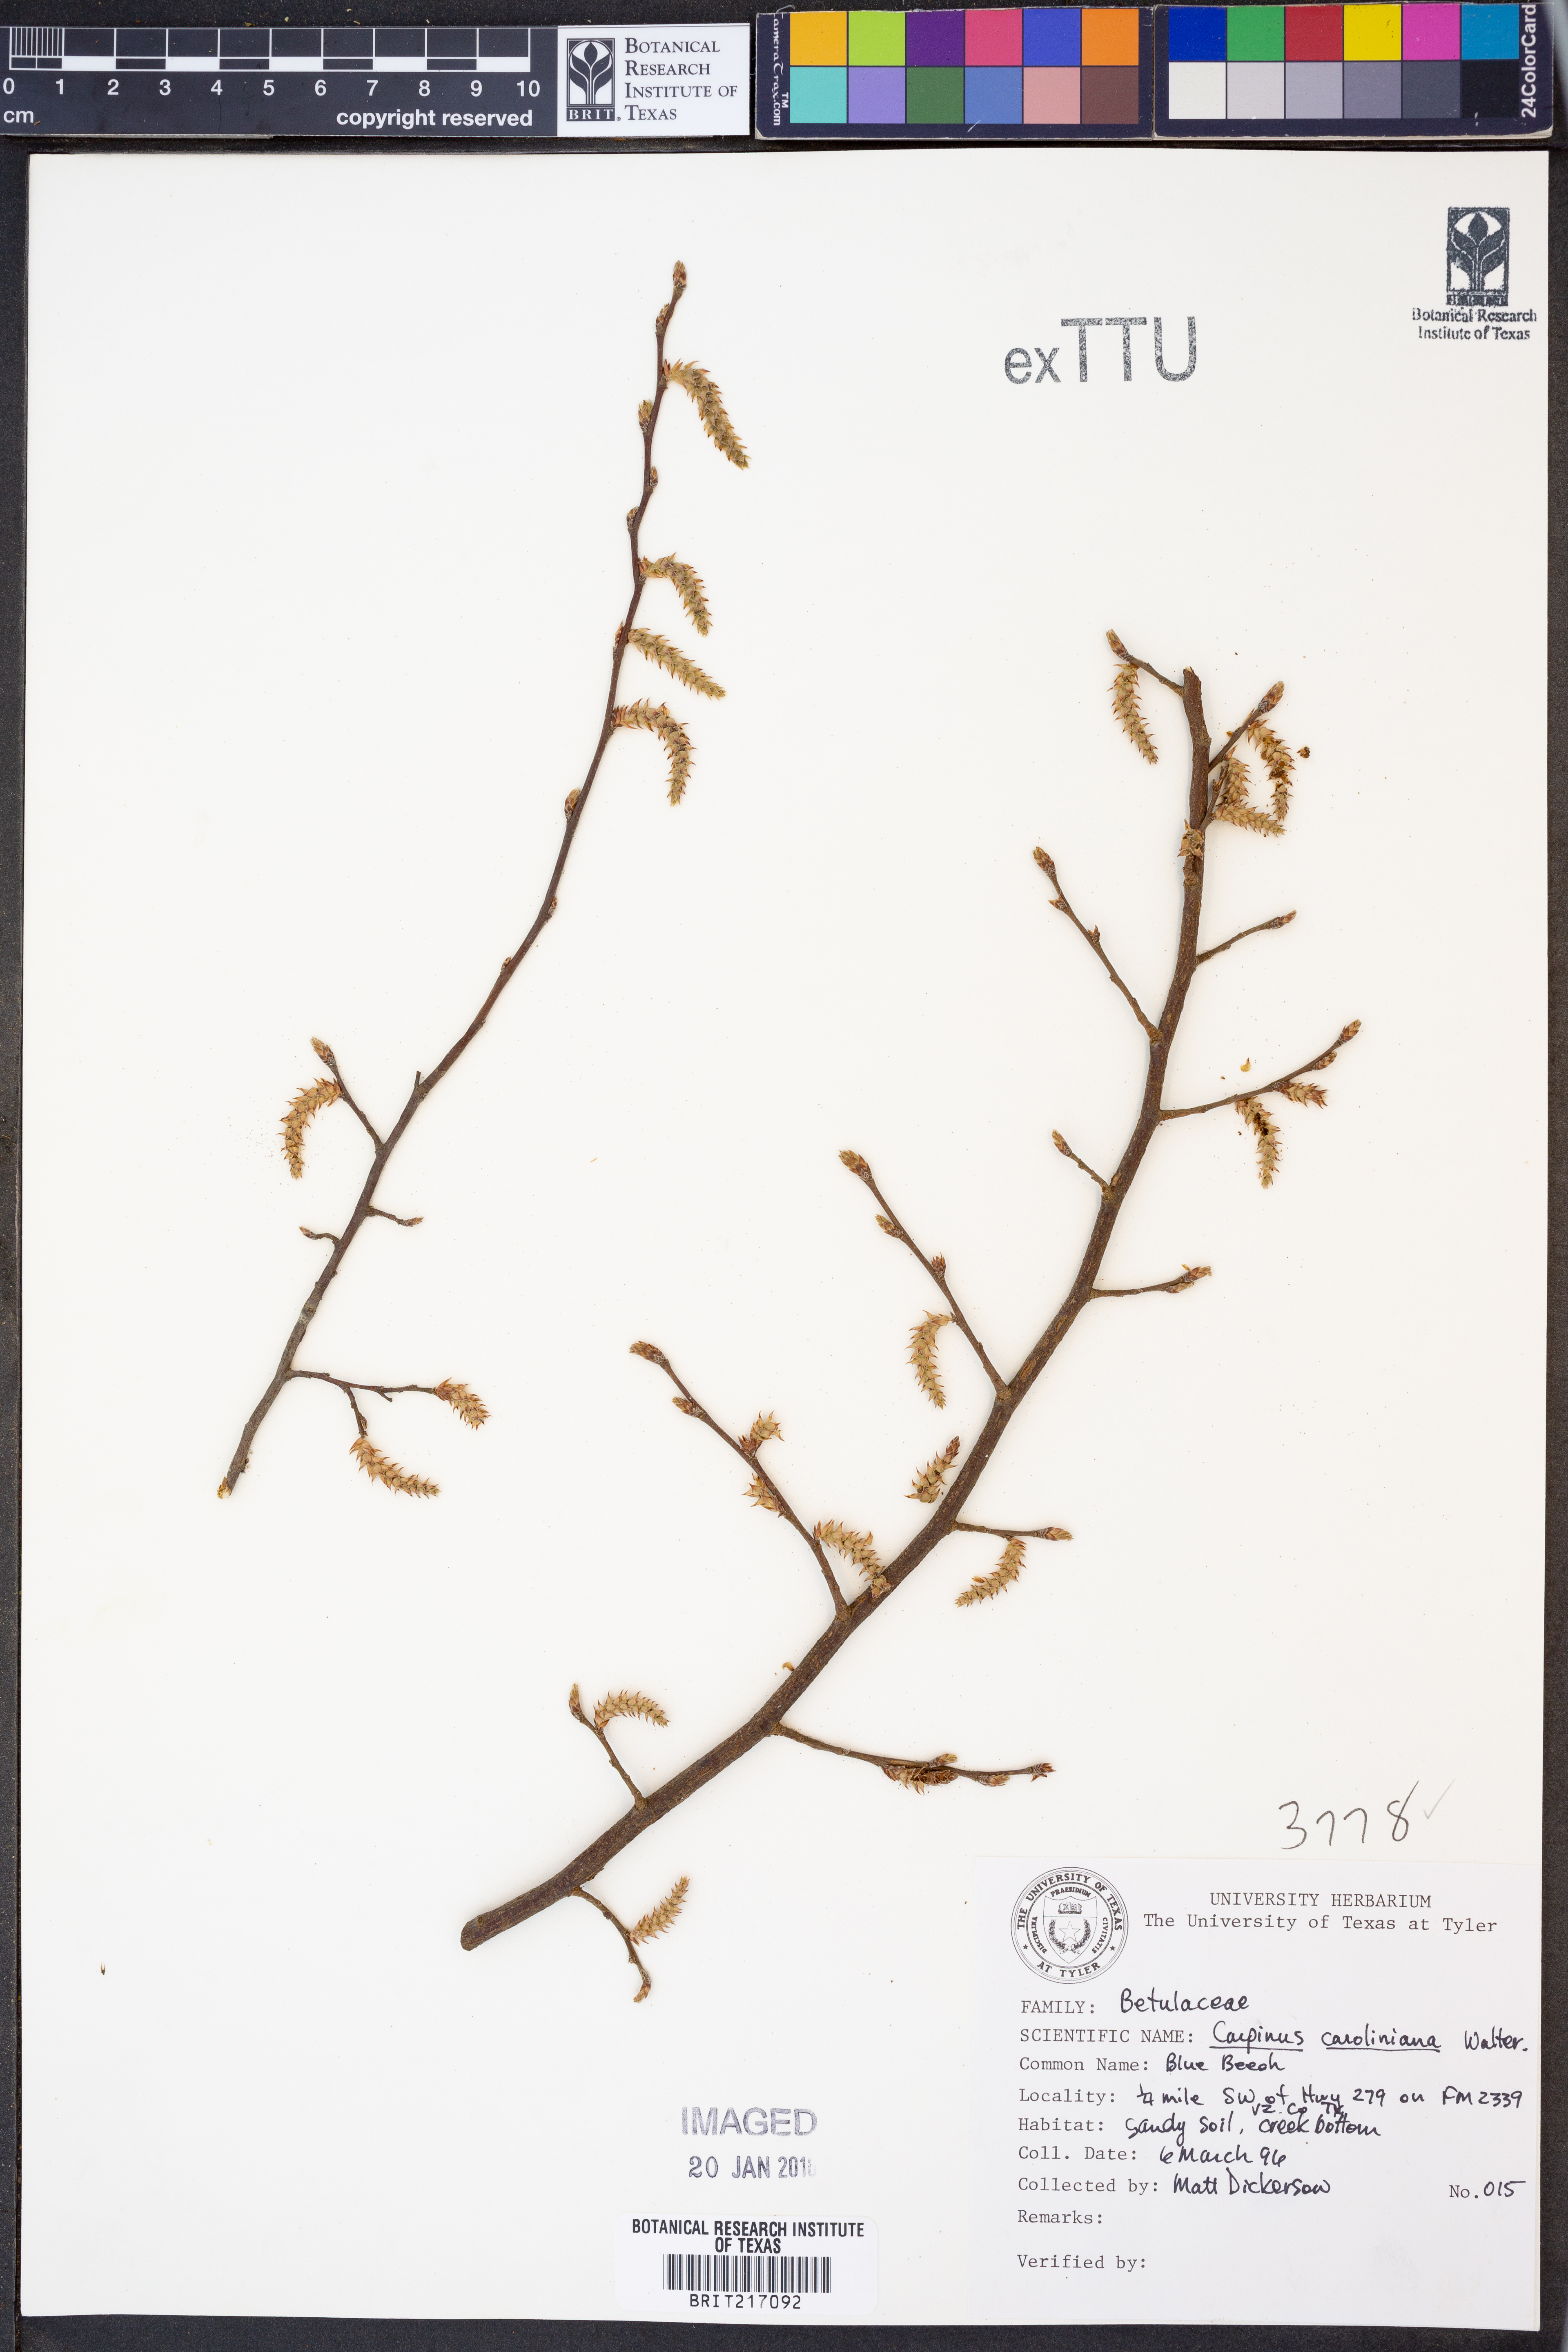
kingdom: Plantae
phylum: Tracheophyta
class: Magnoliopsida
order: Fagales
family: Betulaceae
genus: Carpinus
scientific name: Carpinus caroliniana
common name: American hornbeam
